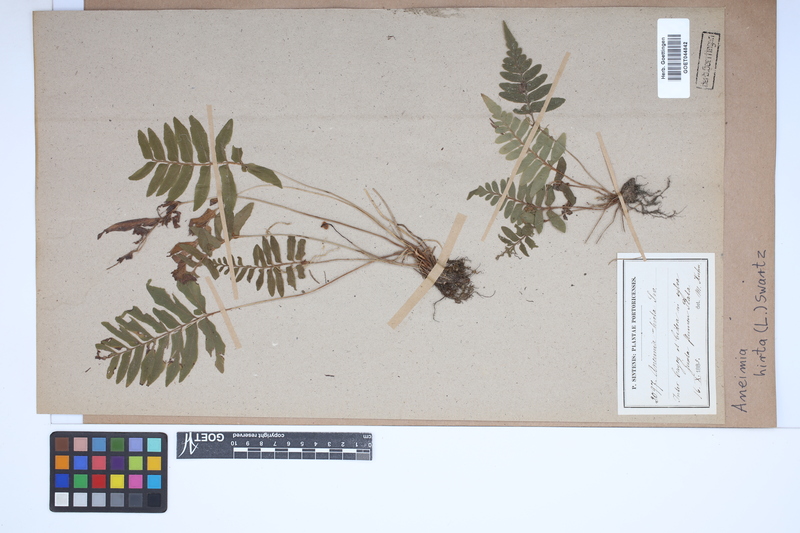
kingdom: Plantae
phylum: Tracheophyta
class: Polypodiopsida
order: Schizaeales
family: Anemiaceae
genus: Anemia
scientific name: Anemia hirta
